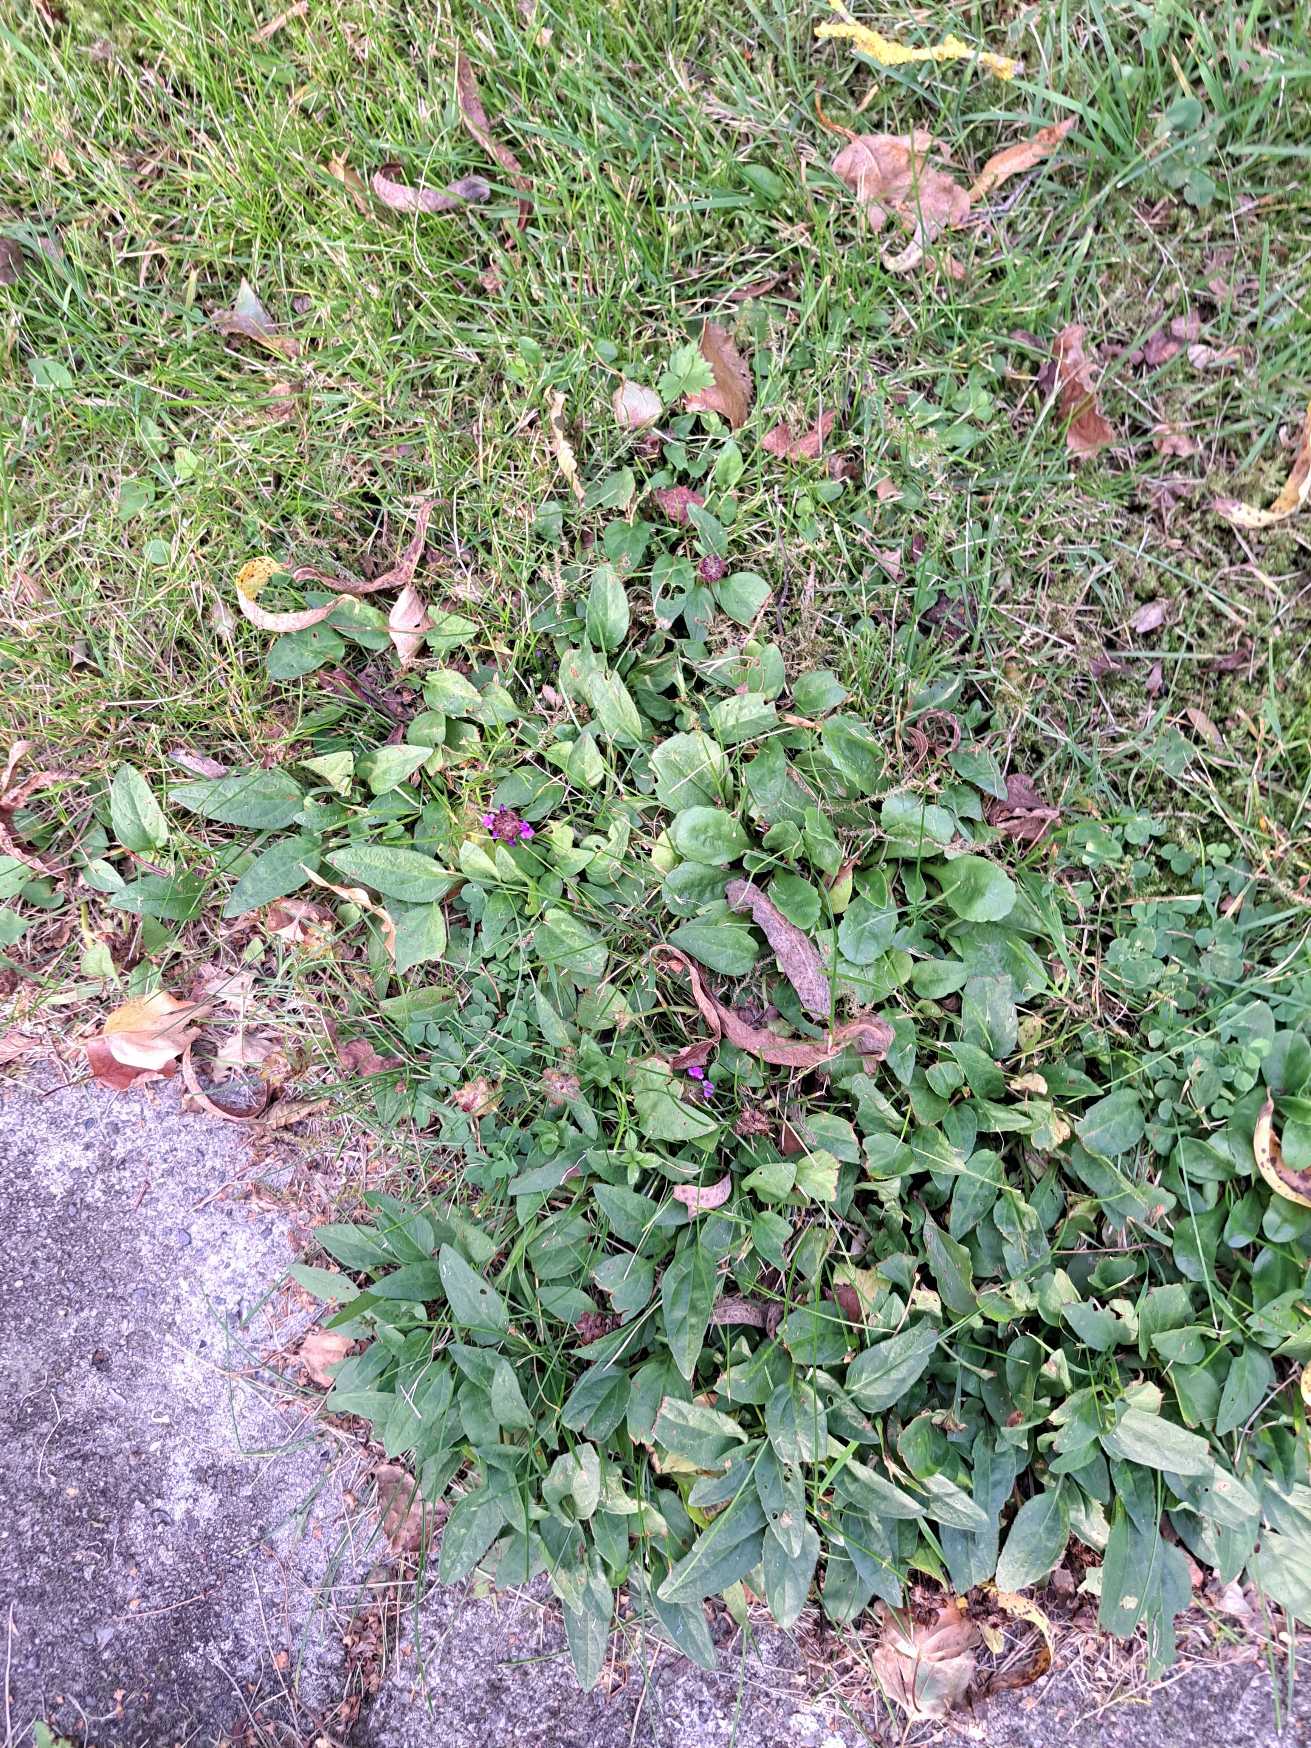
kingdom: Plantae
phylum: Tracheophyta
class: Magnoliopsida
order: Lamiales
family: Lamiaceae
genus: Prunella
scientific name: Prunella vulgaris
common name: Almindelig brunelle
